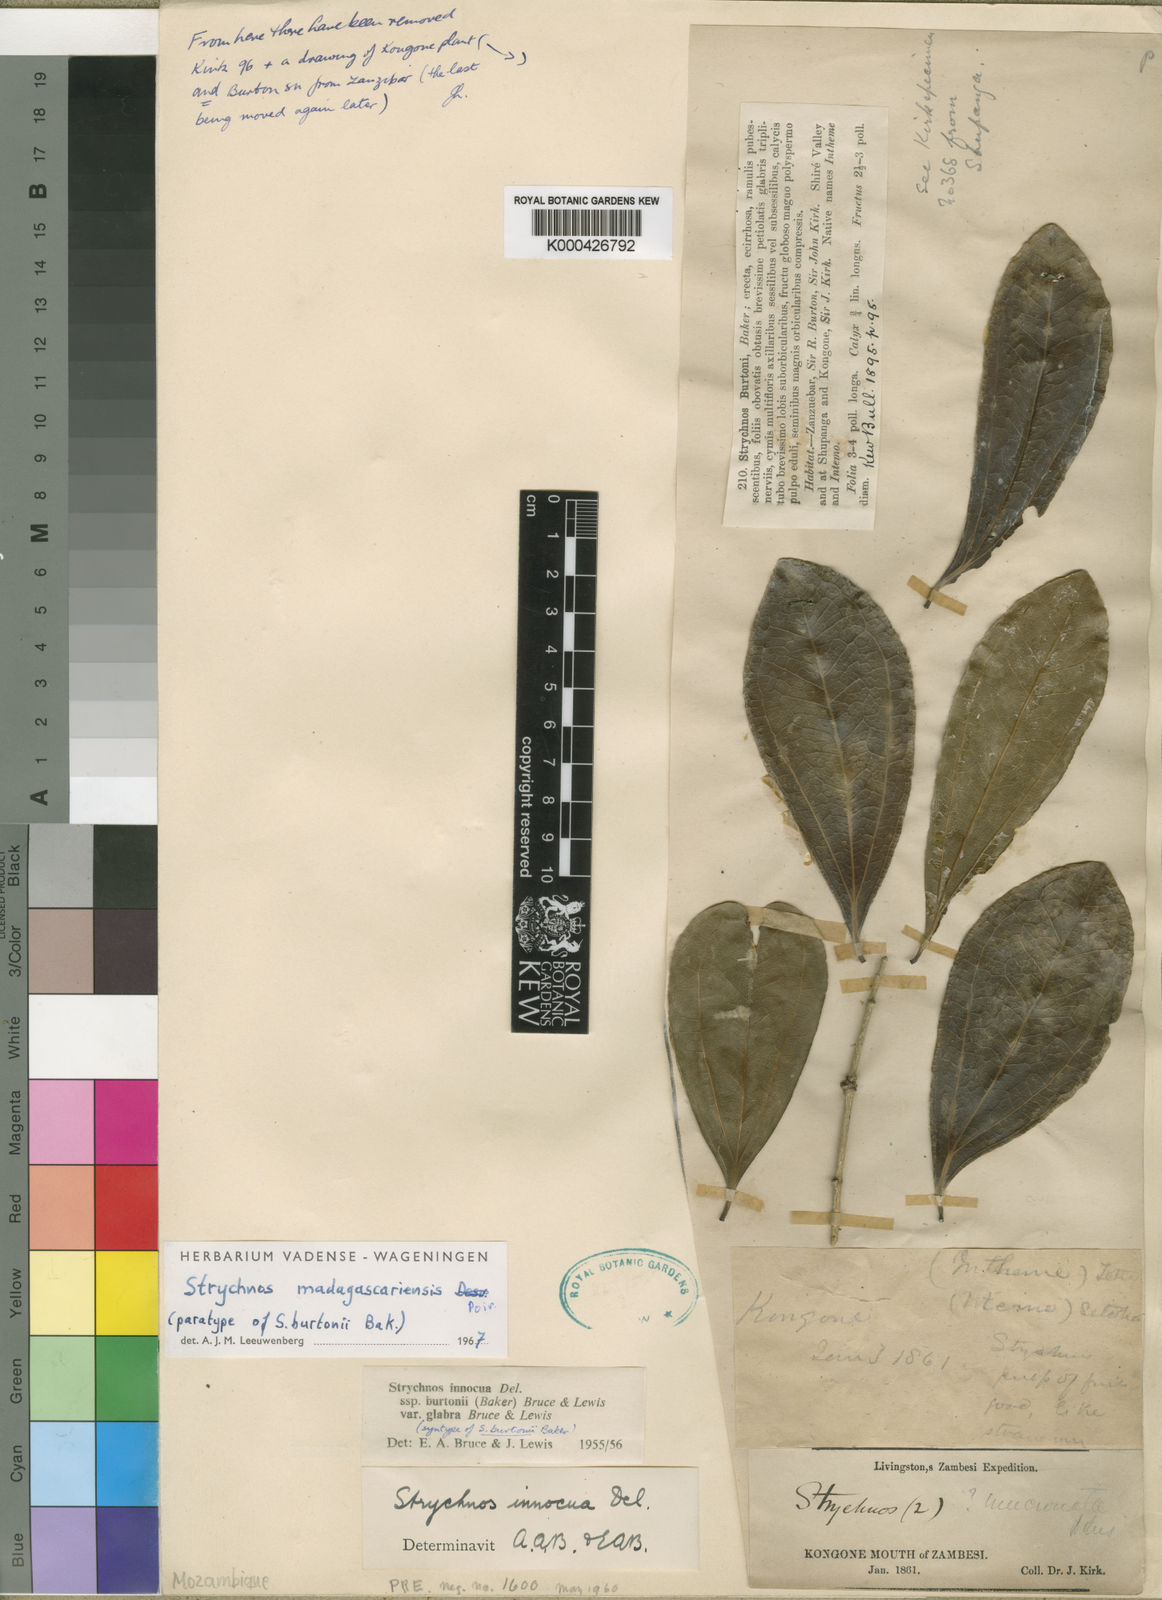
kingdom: Plantae
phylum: Tracheophyta
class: Magnoliopsida
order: Gentianales
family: Loganiaceae
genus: Strychnos
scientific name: Strychnos madagascariensis
